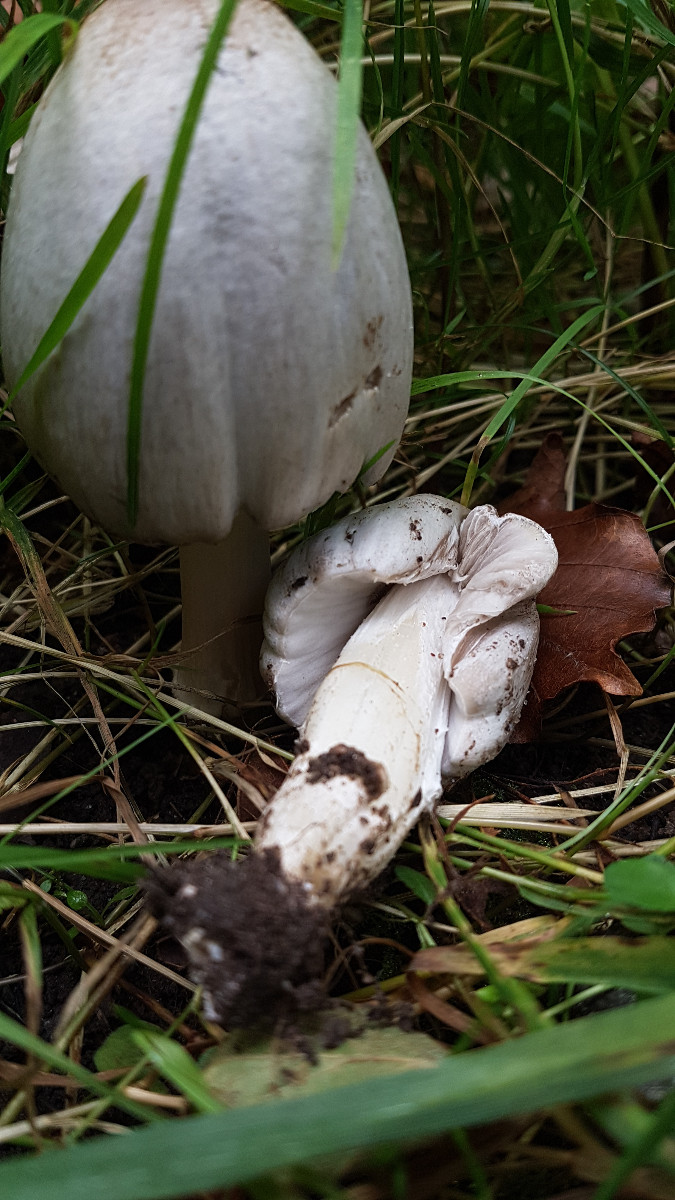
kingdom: Fungi
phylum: Basidiomycota
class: Agaricomycetes
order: Agaricales
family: Psathyrellaceae
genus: Coprinopsis
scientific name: Coprinopsis atramentaria
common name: almindelig blækhat
